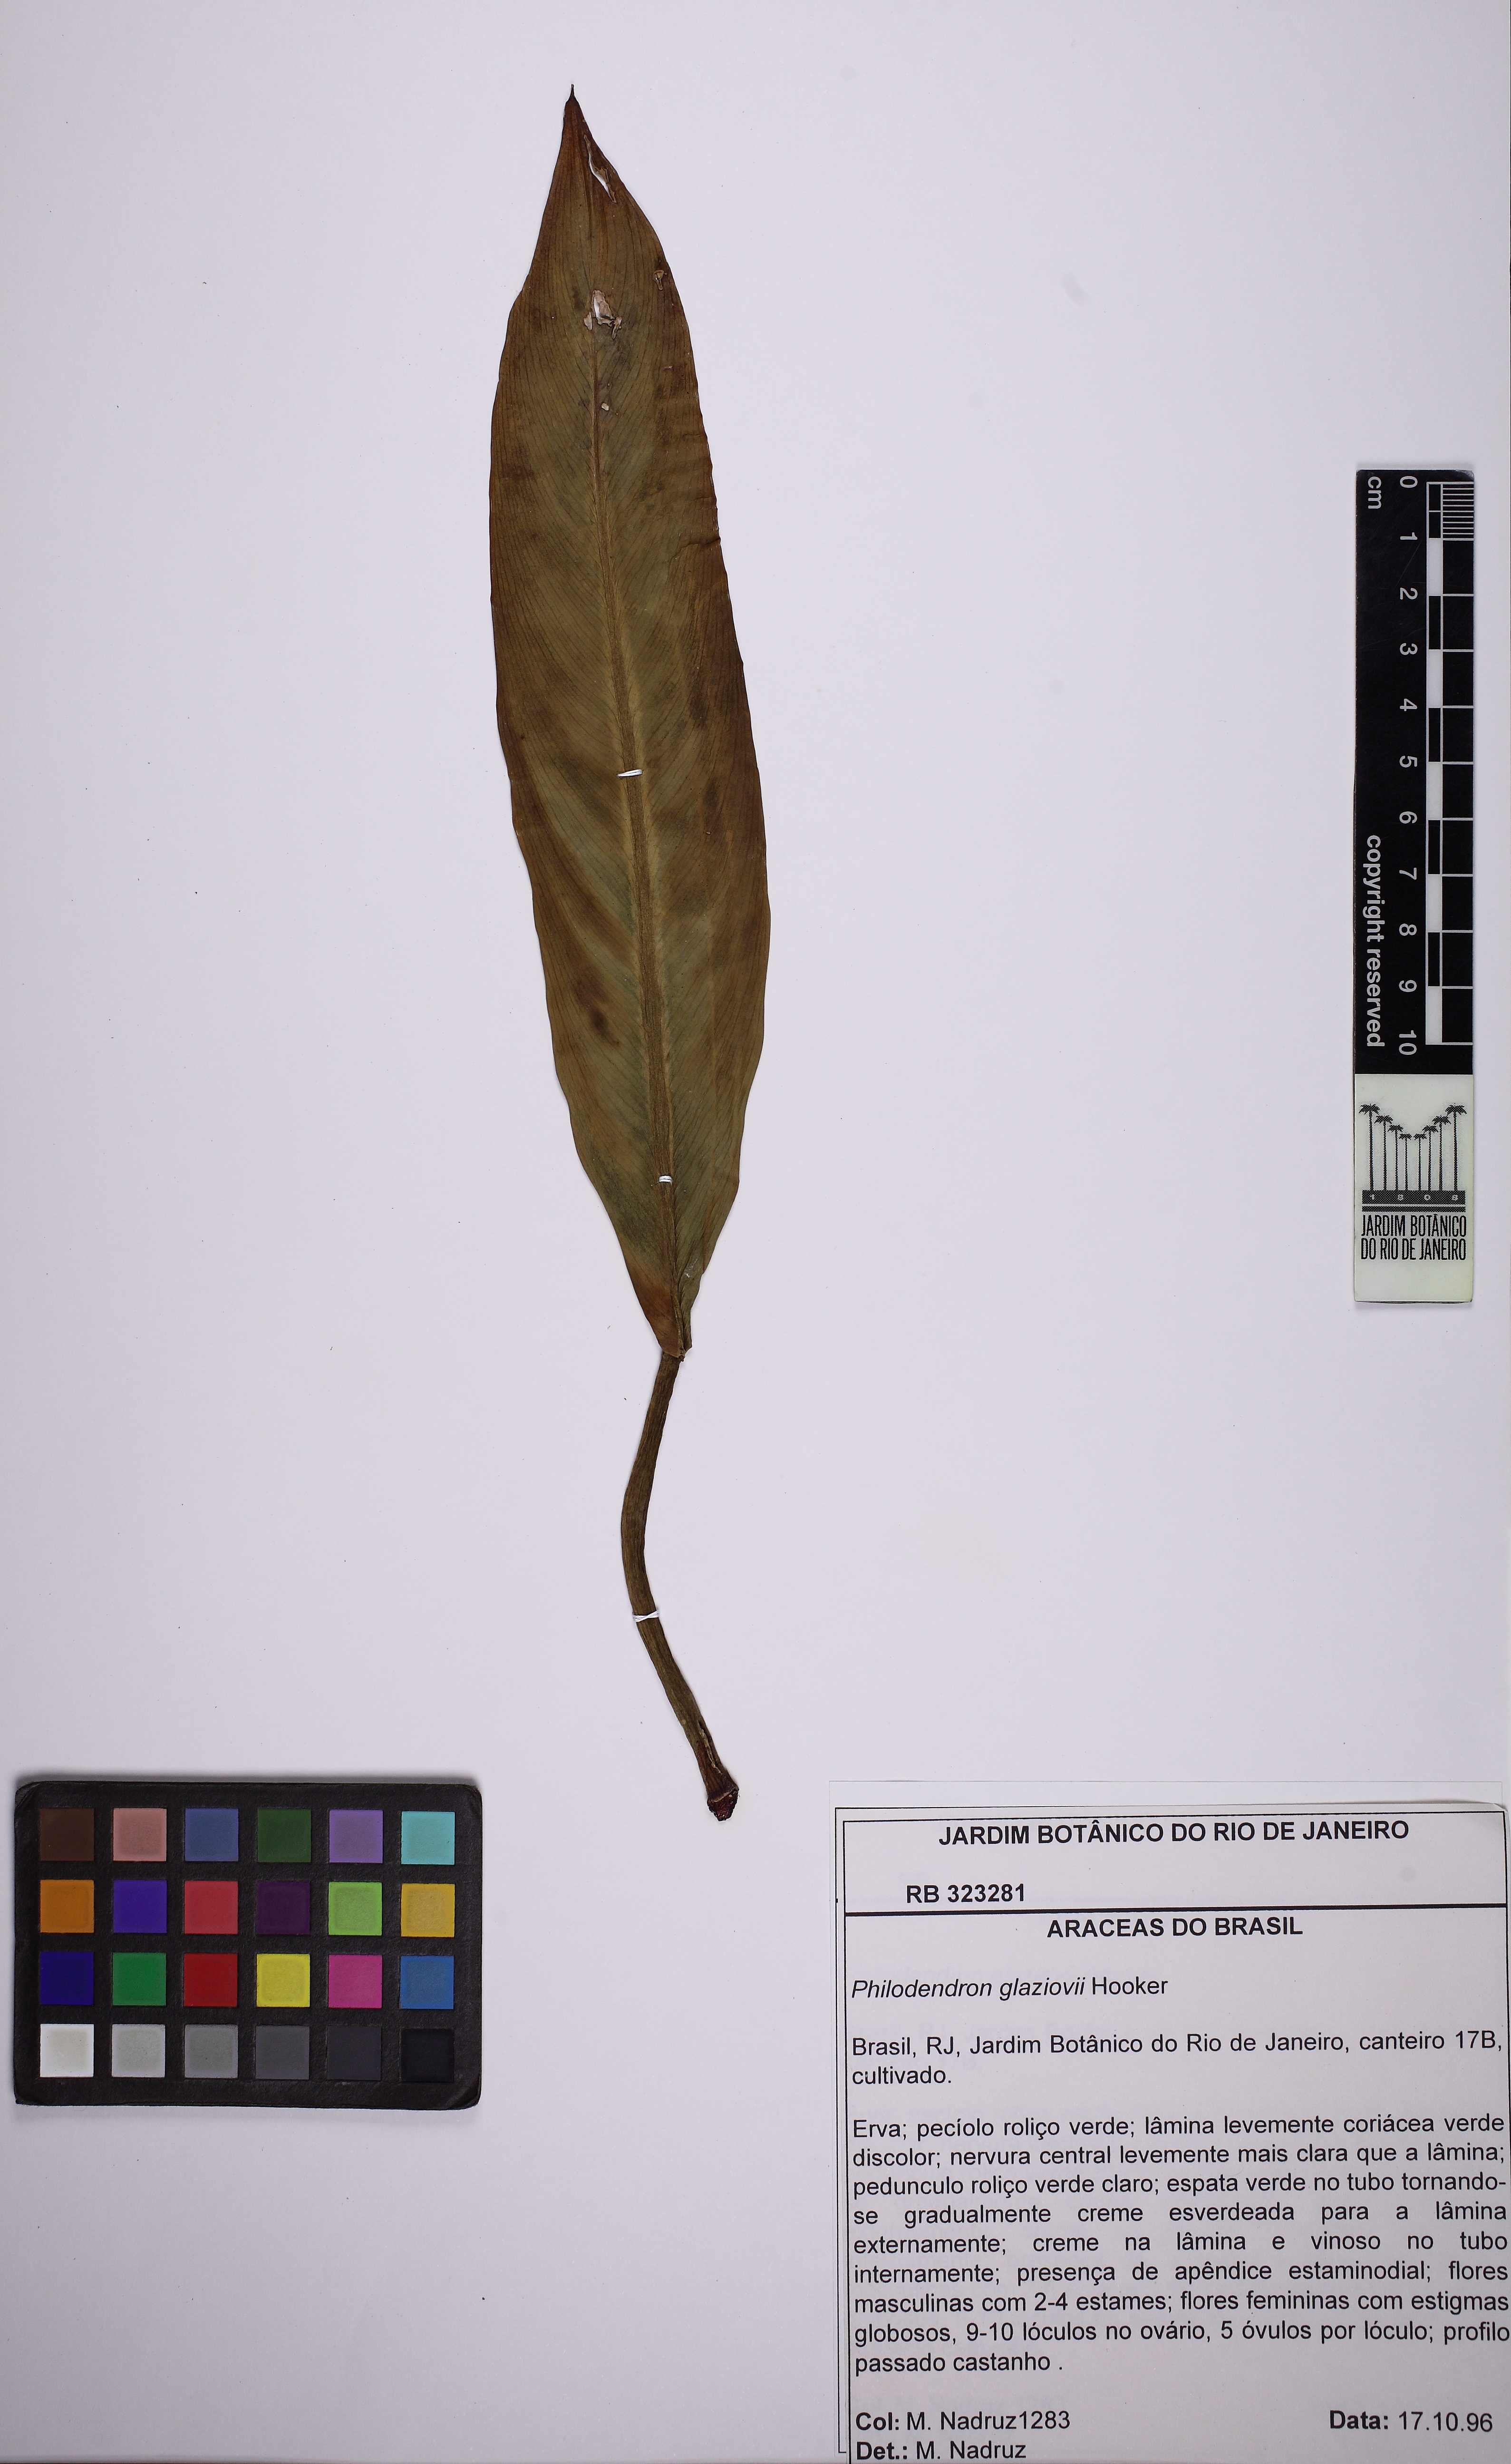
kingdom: Plantae
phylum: Tracheophyta
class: Liliopsida
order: Alismatales
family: Araceae
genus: Philodendron
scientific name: Philodendron glaziovii
